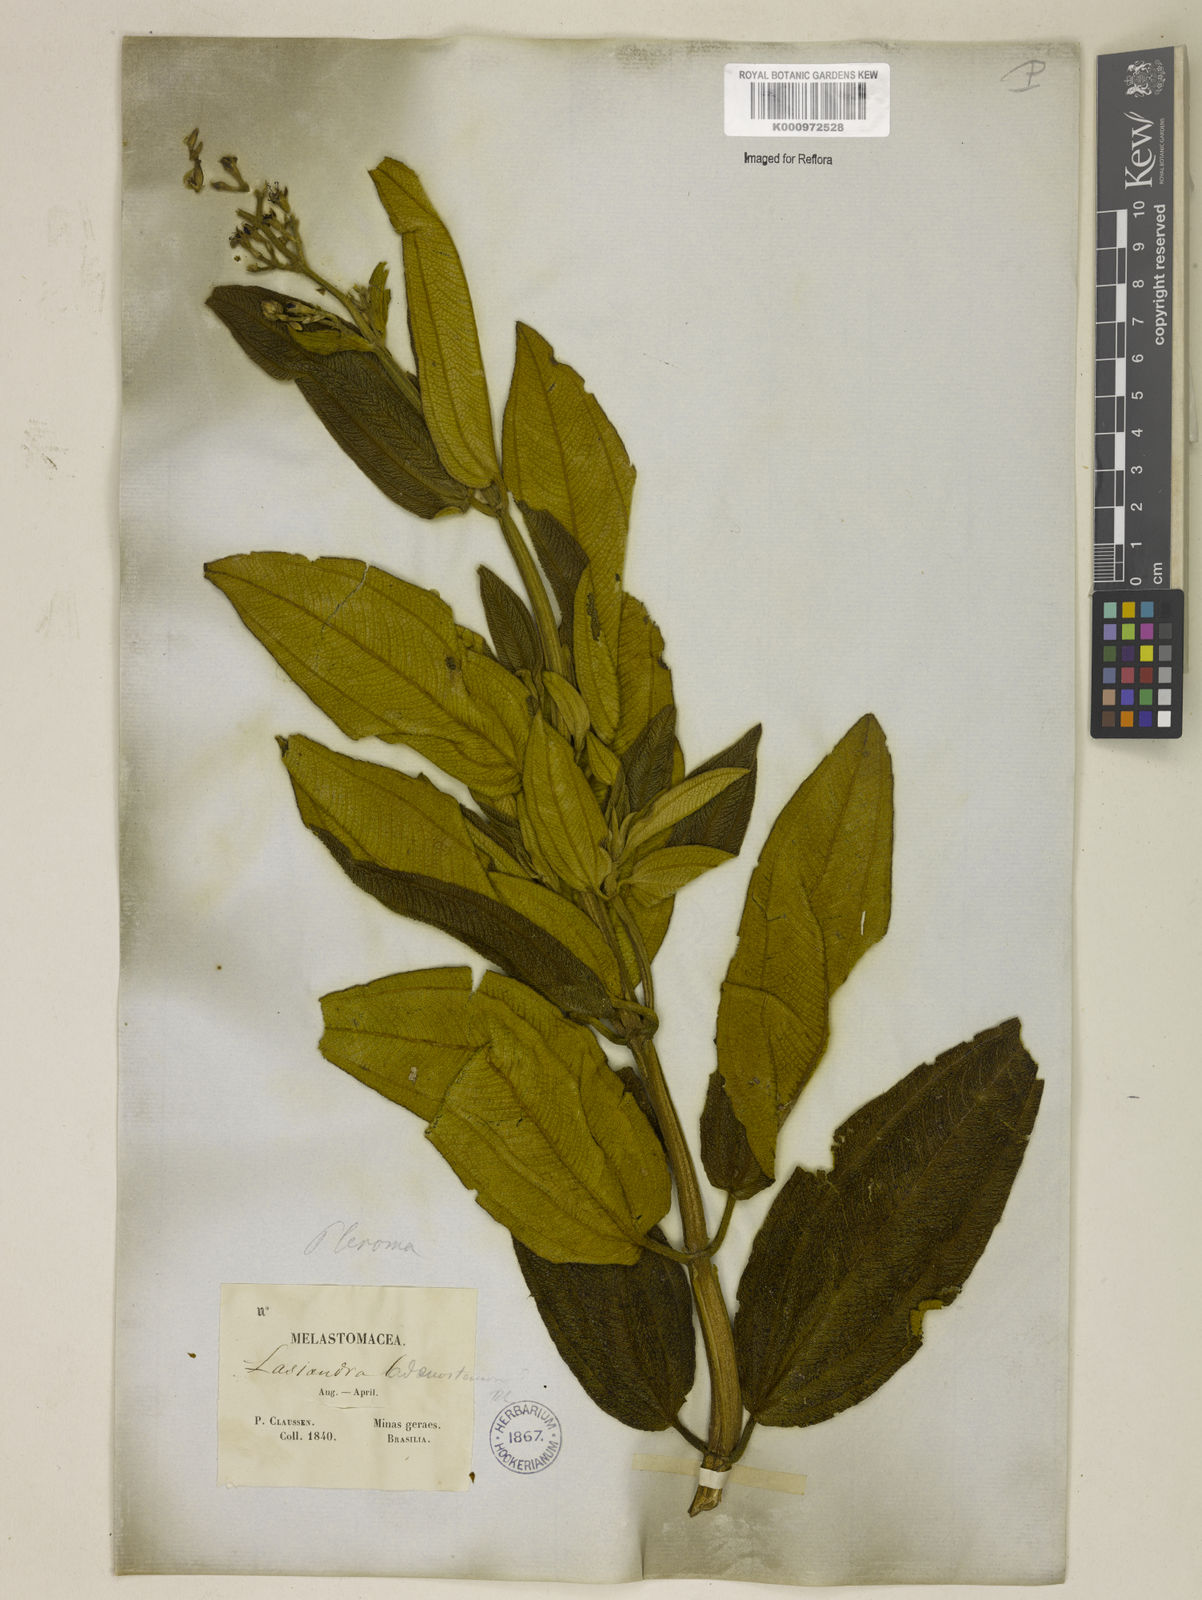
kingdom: Plantae
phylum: Tracheophyta
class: Magnoliopsida
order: Myrtales
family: Melastomataceae
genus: Pleroma
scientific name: Pleroma heteromallum
